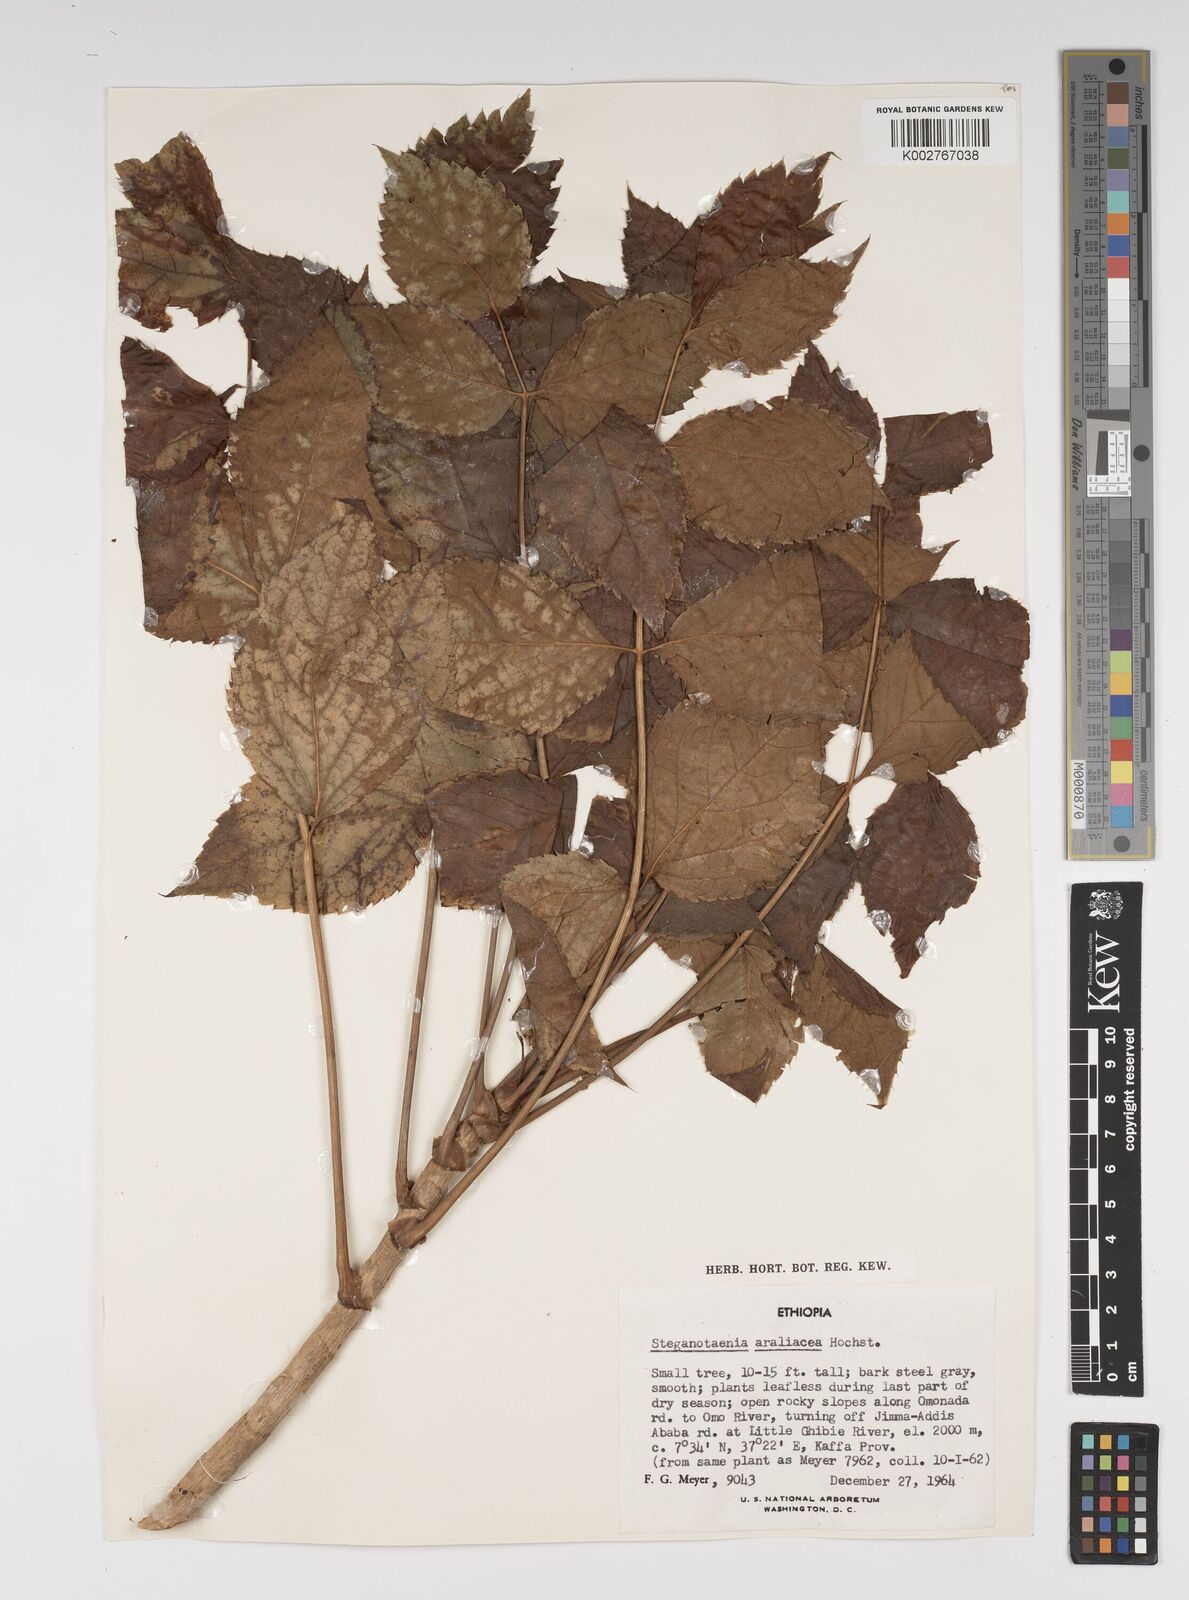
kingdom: Plantae
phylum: Tracheophyta
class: Magnoliopsida
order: Apiales
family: Apiaceae
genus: Steganotaenia
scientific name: Steganotaenia araliacea
